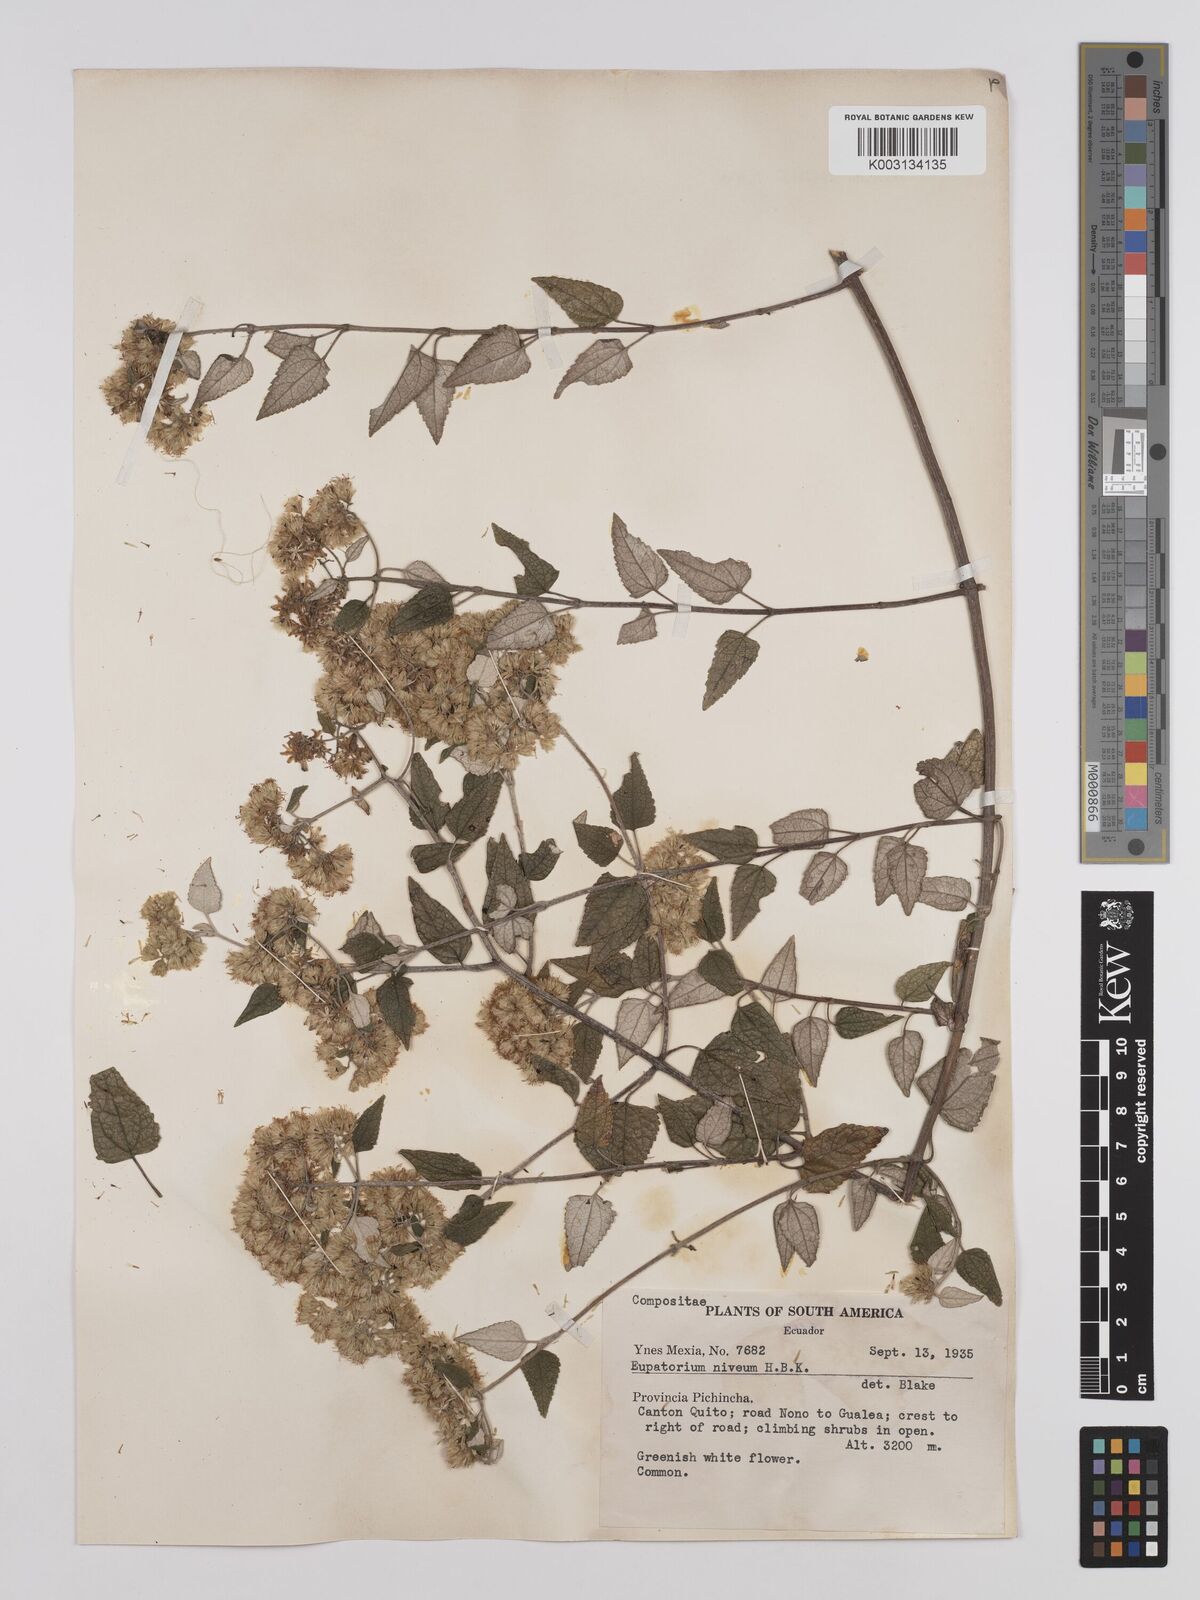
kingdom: Plantae
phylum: Tracheophyta
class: Magnoliopsida
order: Asterales
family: Asteraceae
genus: Cronquistianthus
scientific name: Cronquistianthus niveus
